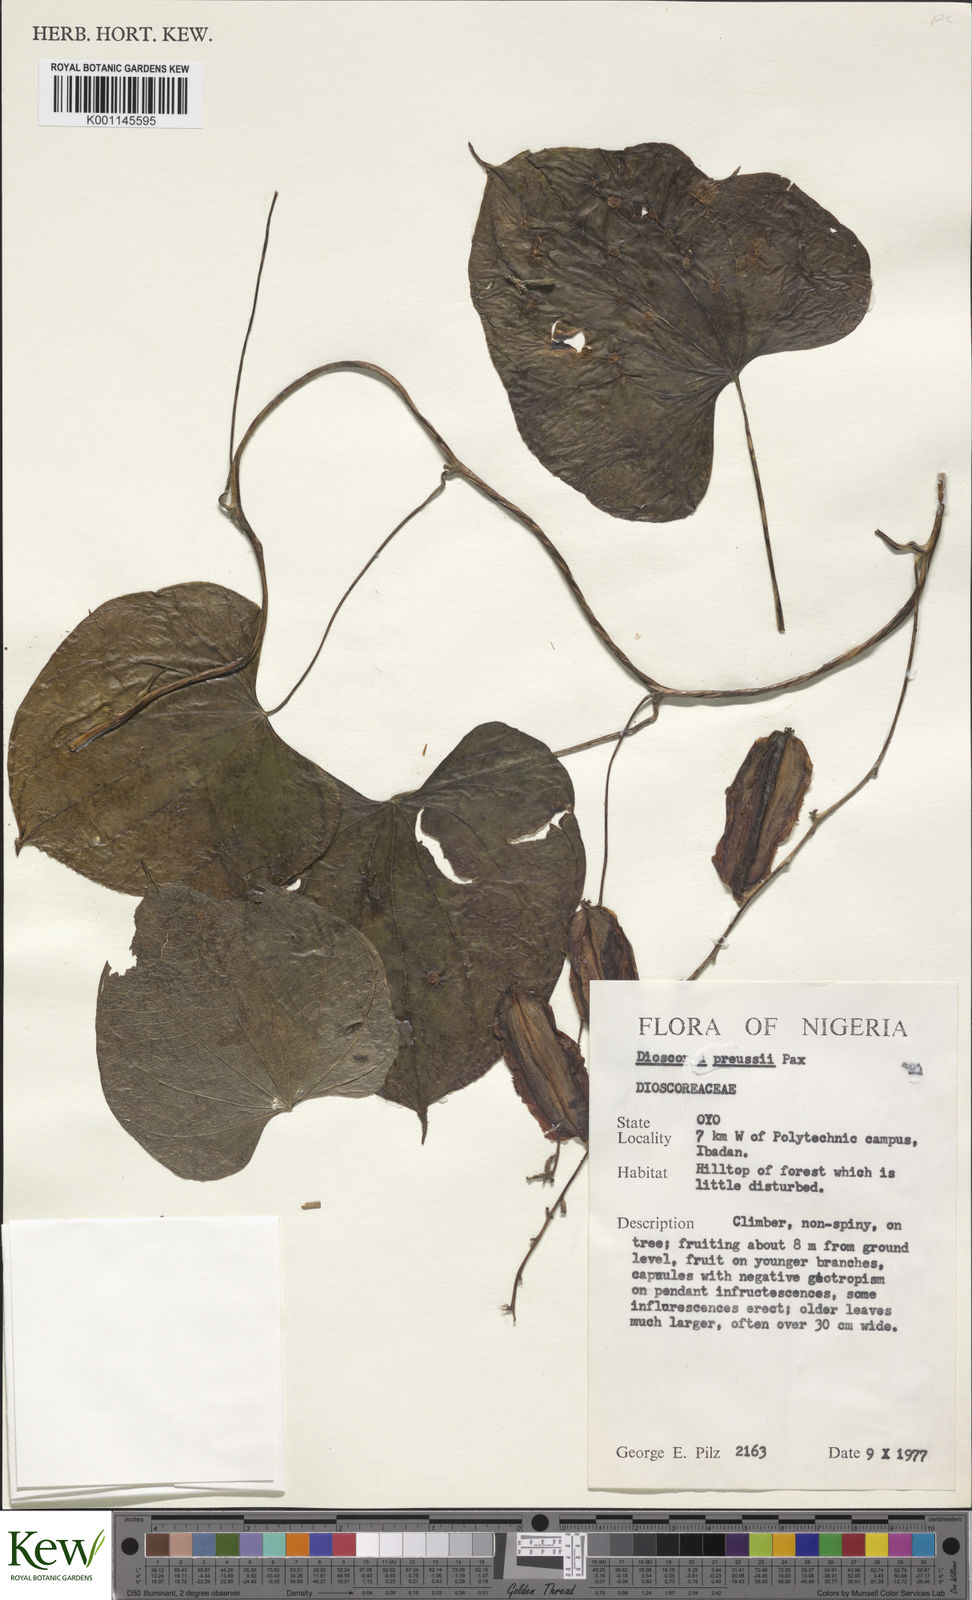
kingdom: Plantae
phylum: Tracheophyta
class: Liliopsida
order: Dioscoreales
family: Dioscoreaceae
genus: Dioscorea
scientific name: Dioscorea preussii
